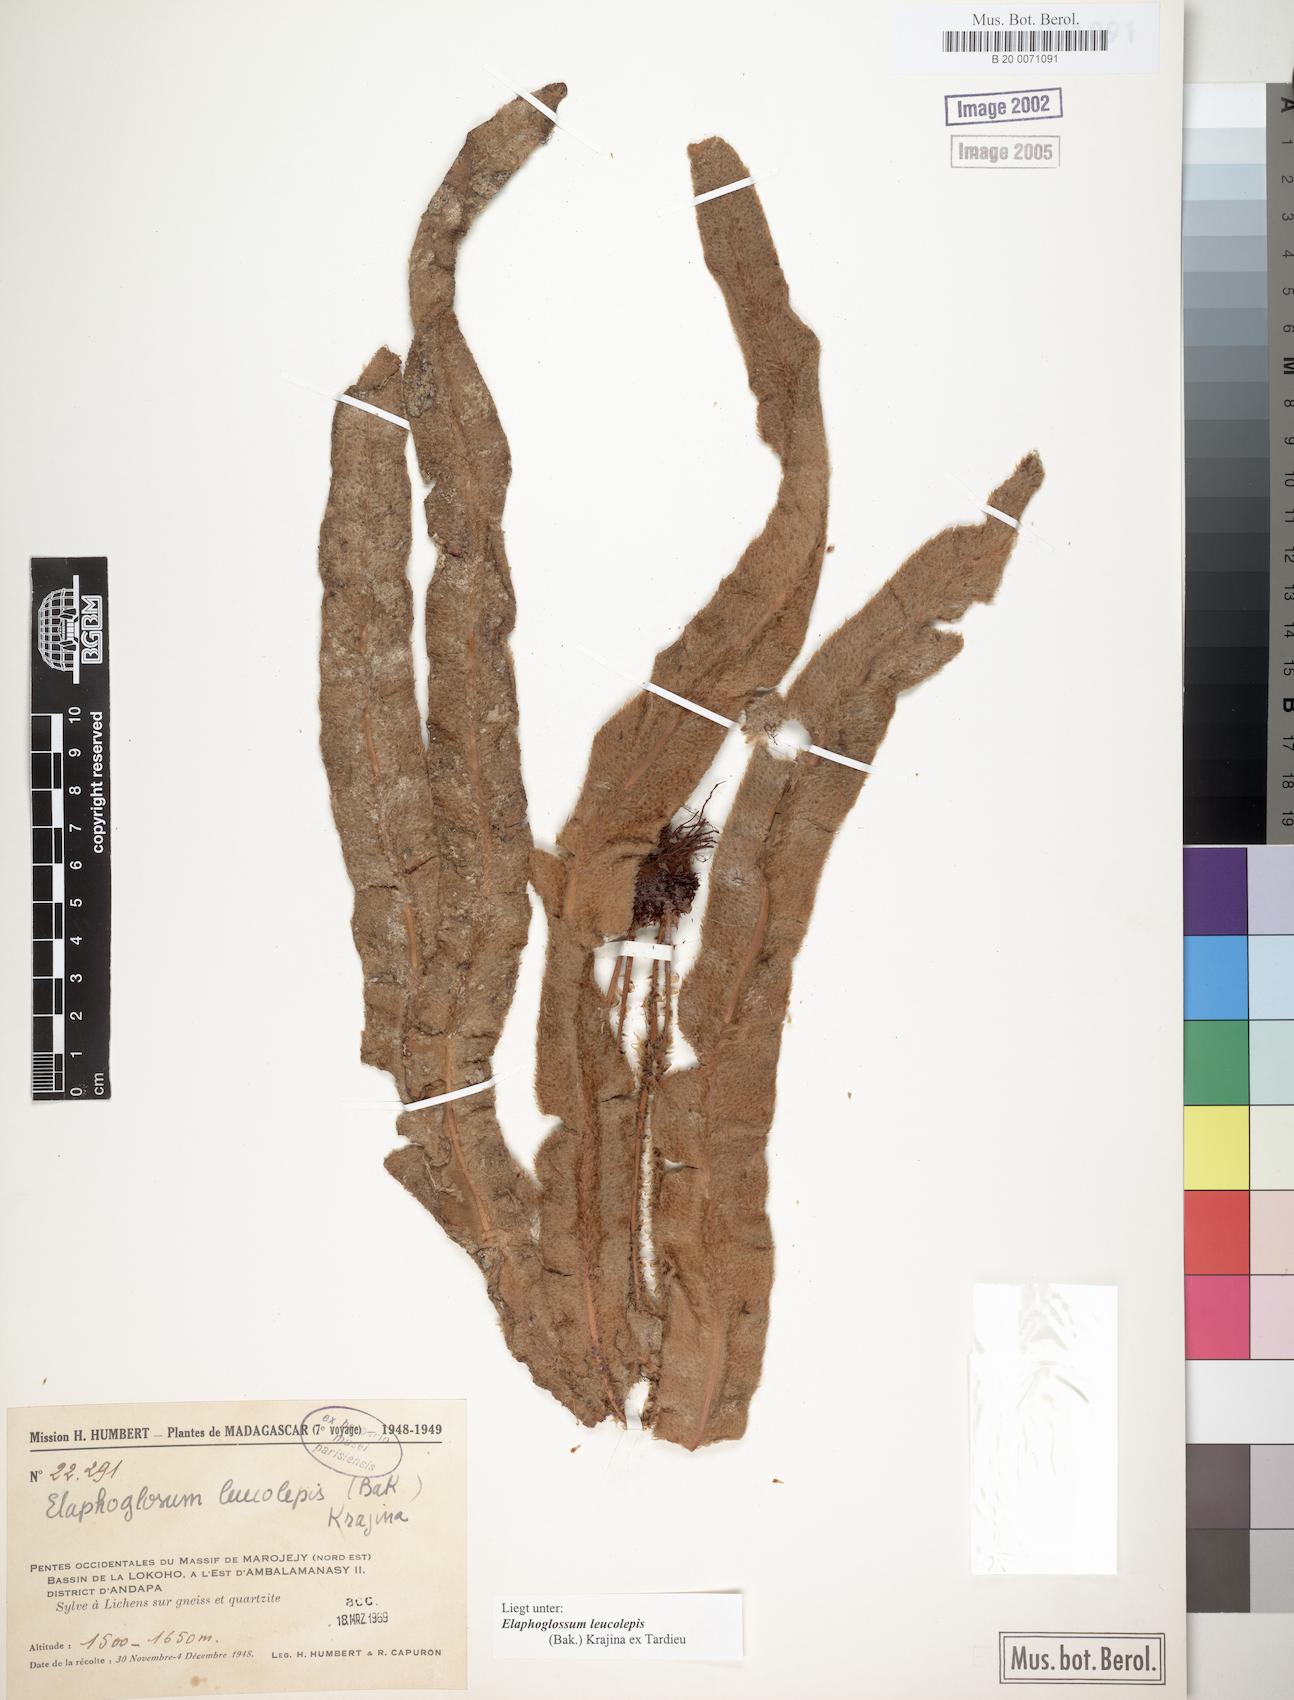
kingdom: Plantae
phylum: Tracheophyta
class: Polypodiopsida
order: Polypodiales
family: Dryopteridaceae
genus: Elaphoglossum
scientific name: Elaphoglossum leucolepis
